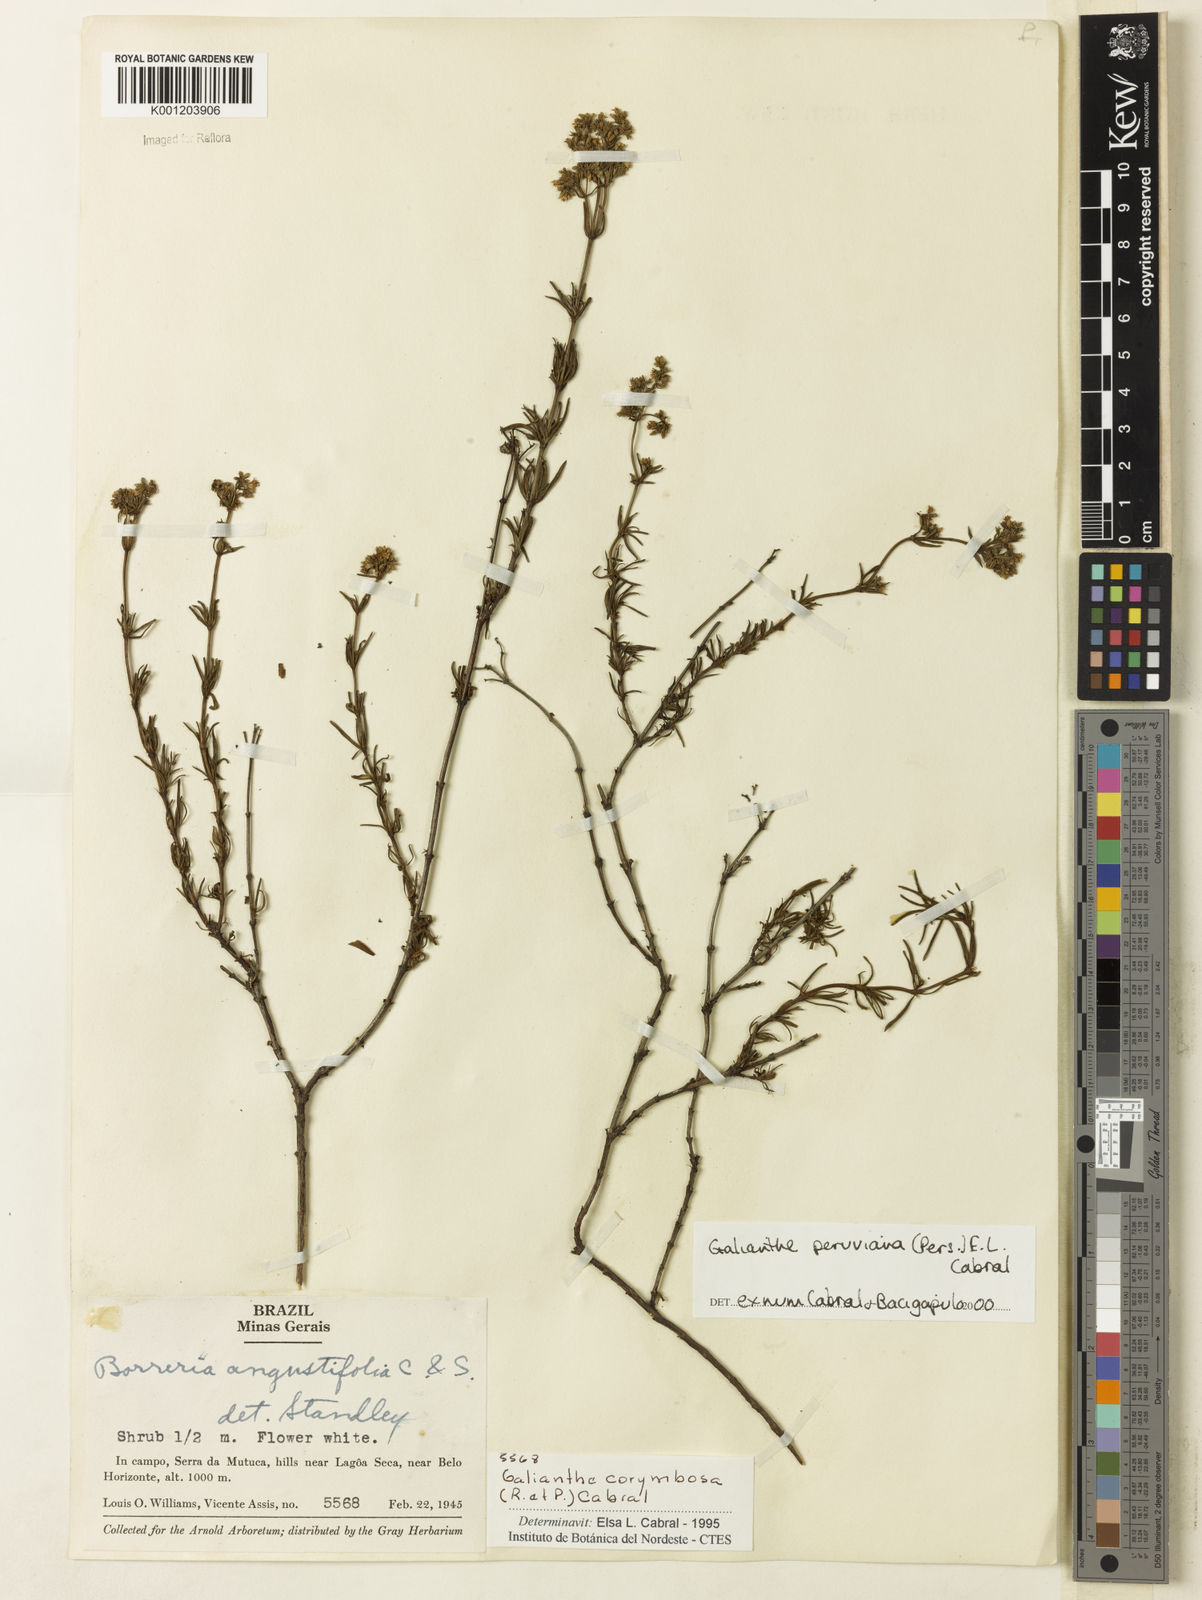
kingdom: Plantae
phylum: Tracheophyta
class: Magnoliopsida
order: Gentianales
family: Rubiaceae
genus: Galianthe
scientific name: Galianthe peruviana
